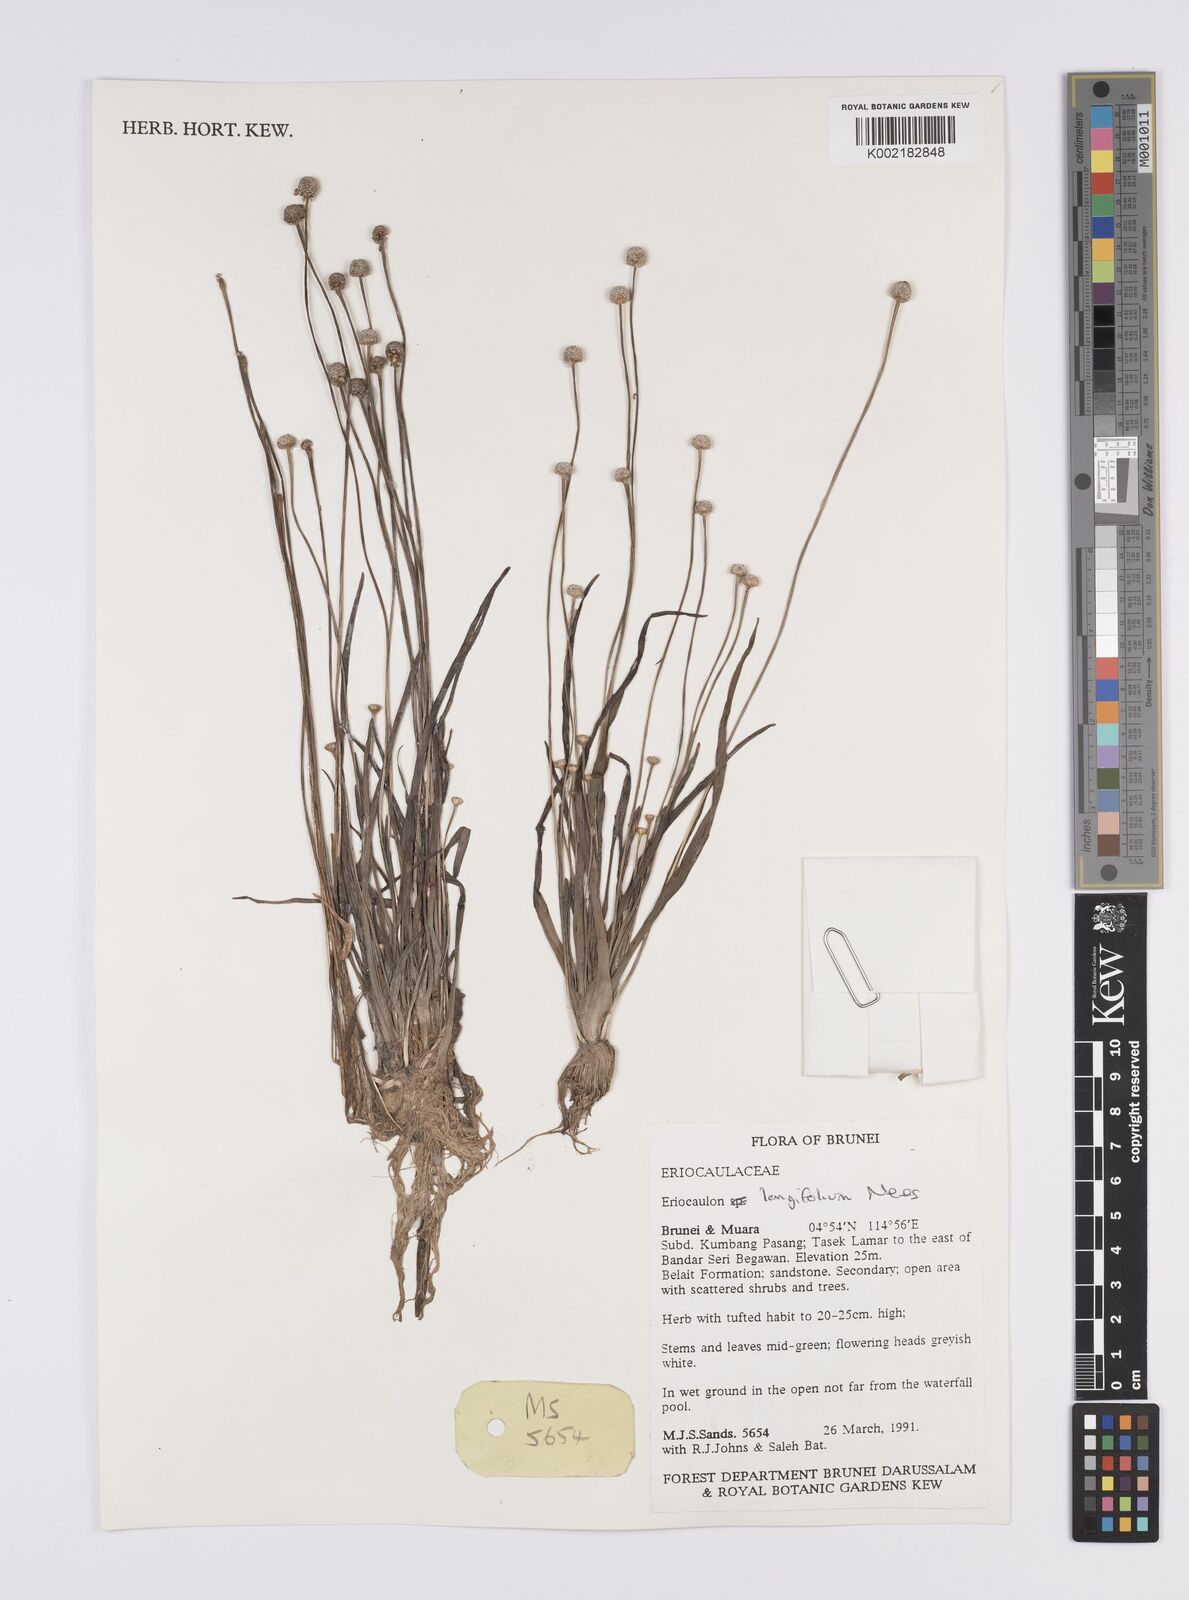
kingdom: Plantae
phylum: Tracheophyta
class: Liliopsida
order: Poales
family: Eriocaulaceae
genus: Eriocaulon
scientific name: Eriocaulon willdenovianum
